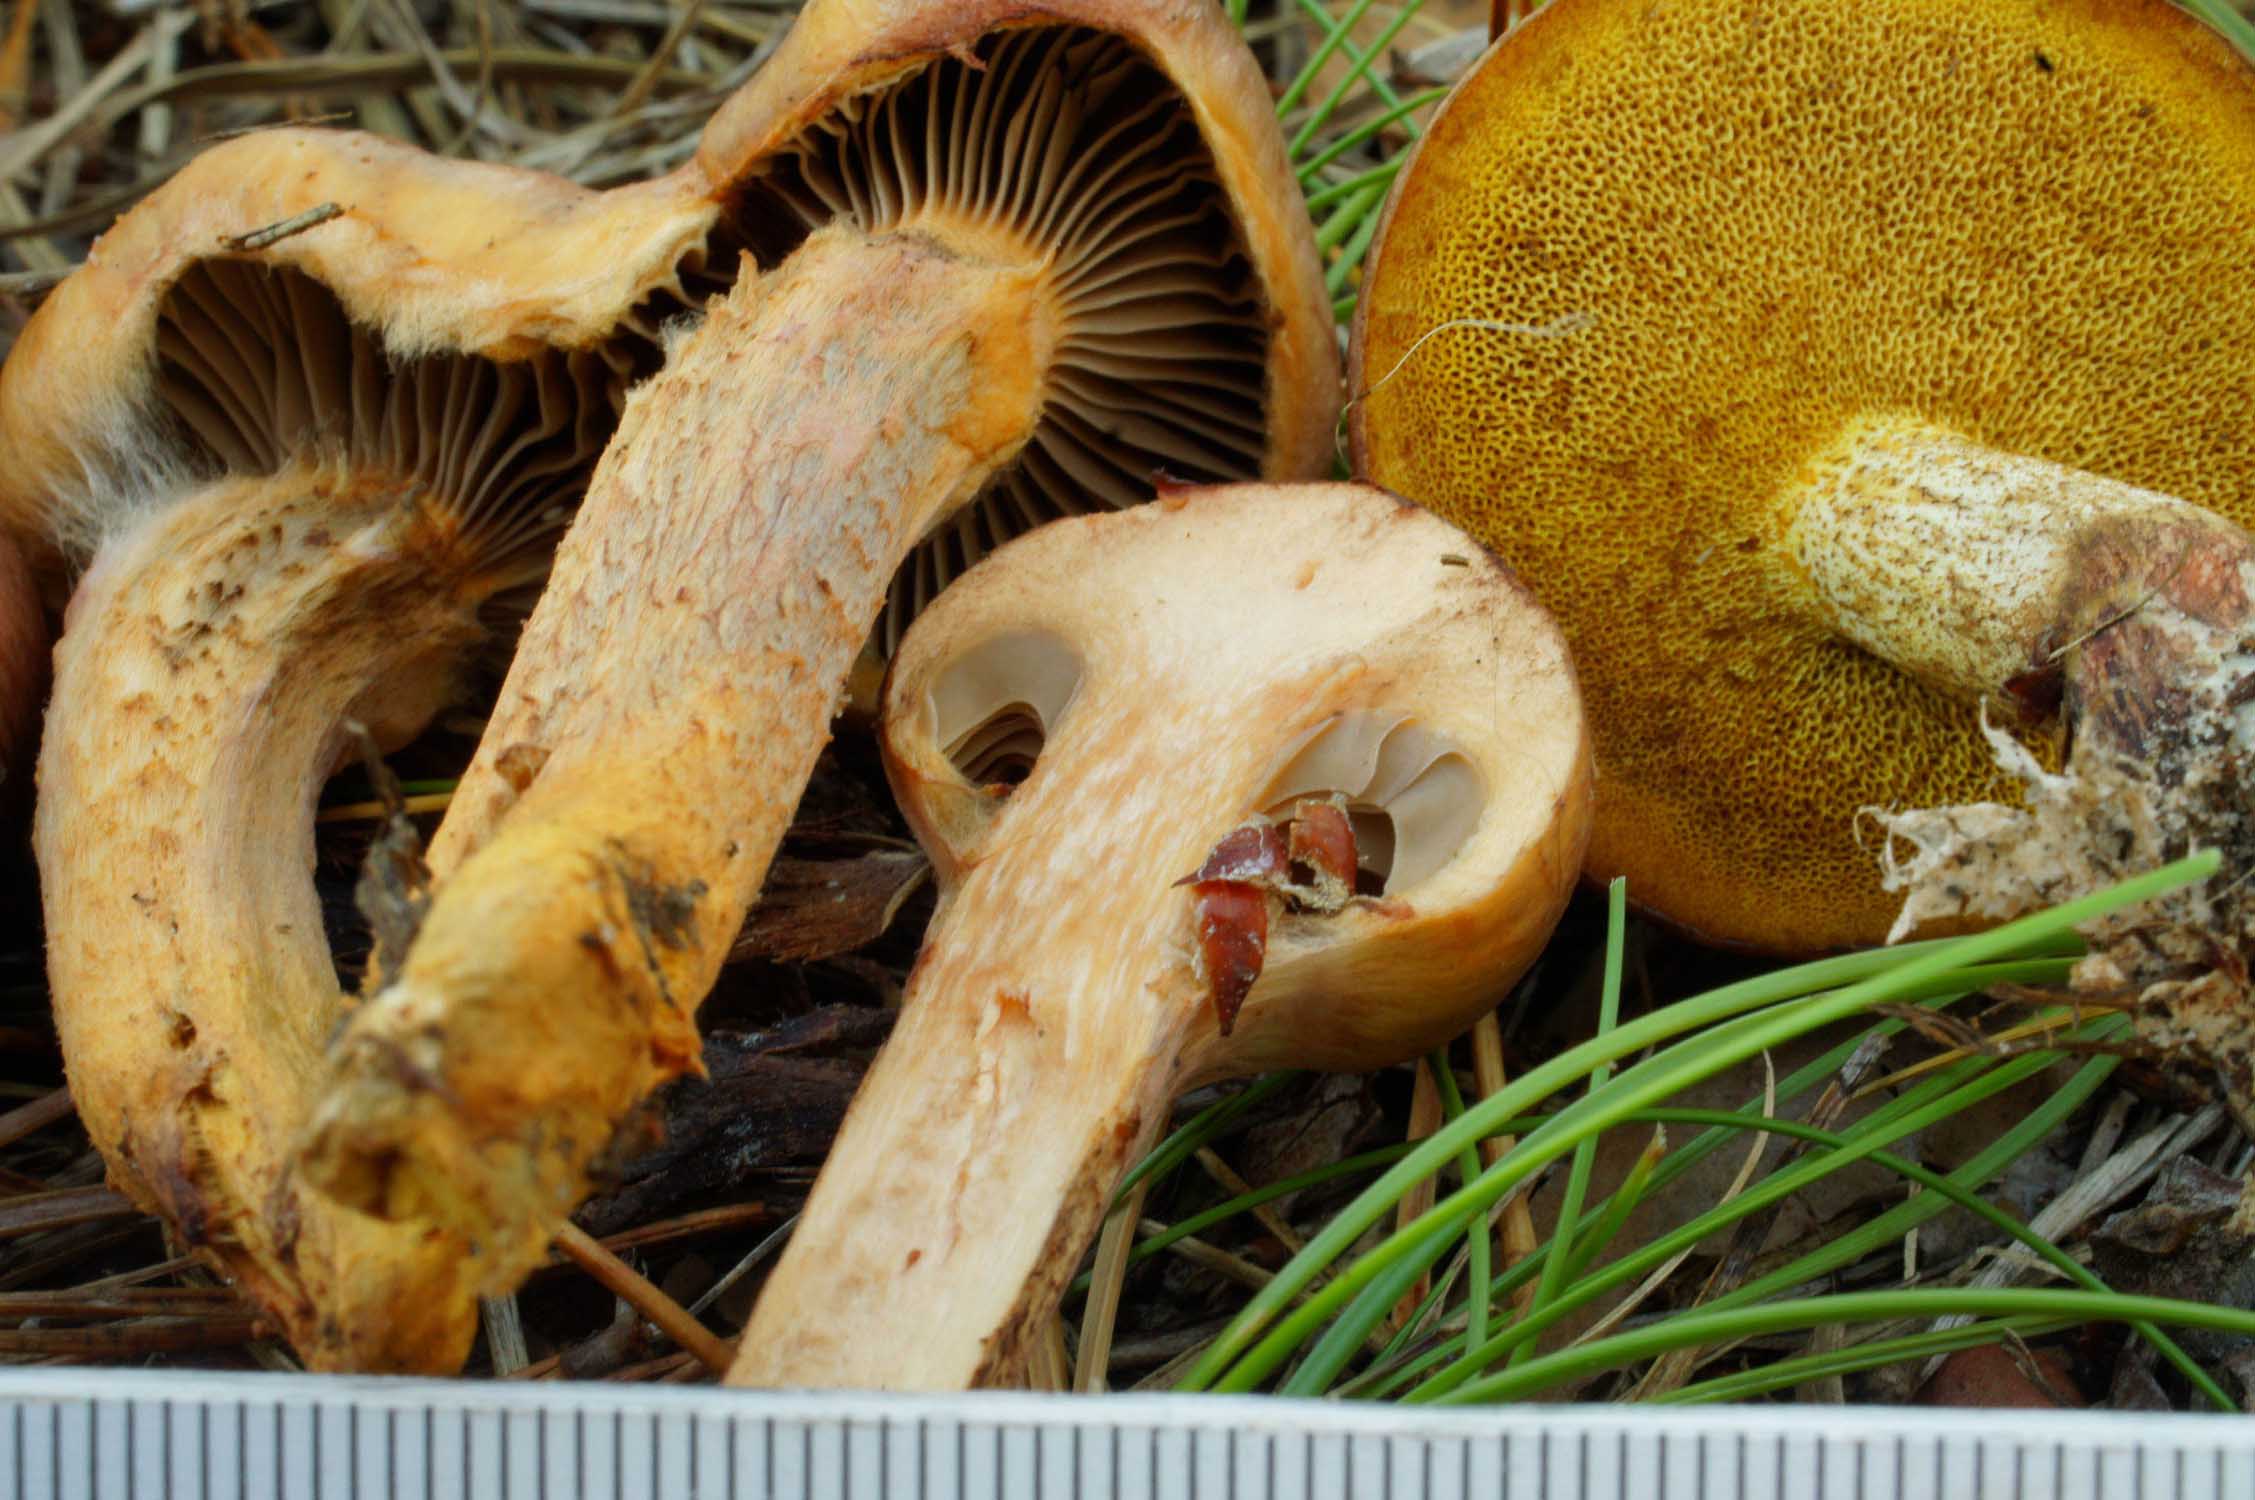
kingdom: Fungi
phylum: Basidiomycota
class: Agaricomycetes
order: Boletales
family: Gomphidiaceae
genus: Gomphidius
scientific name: Gomphidius roseus
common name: rosenrød slimslør
